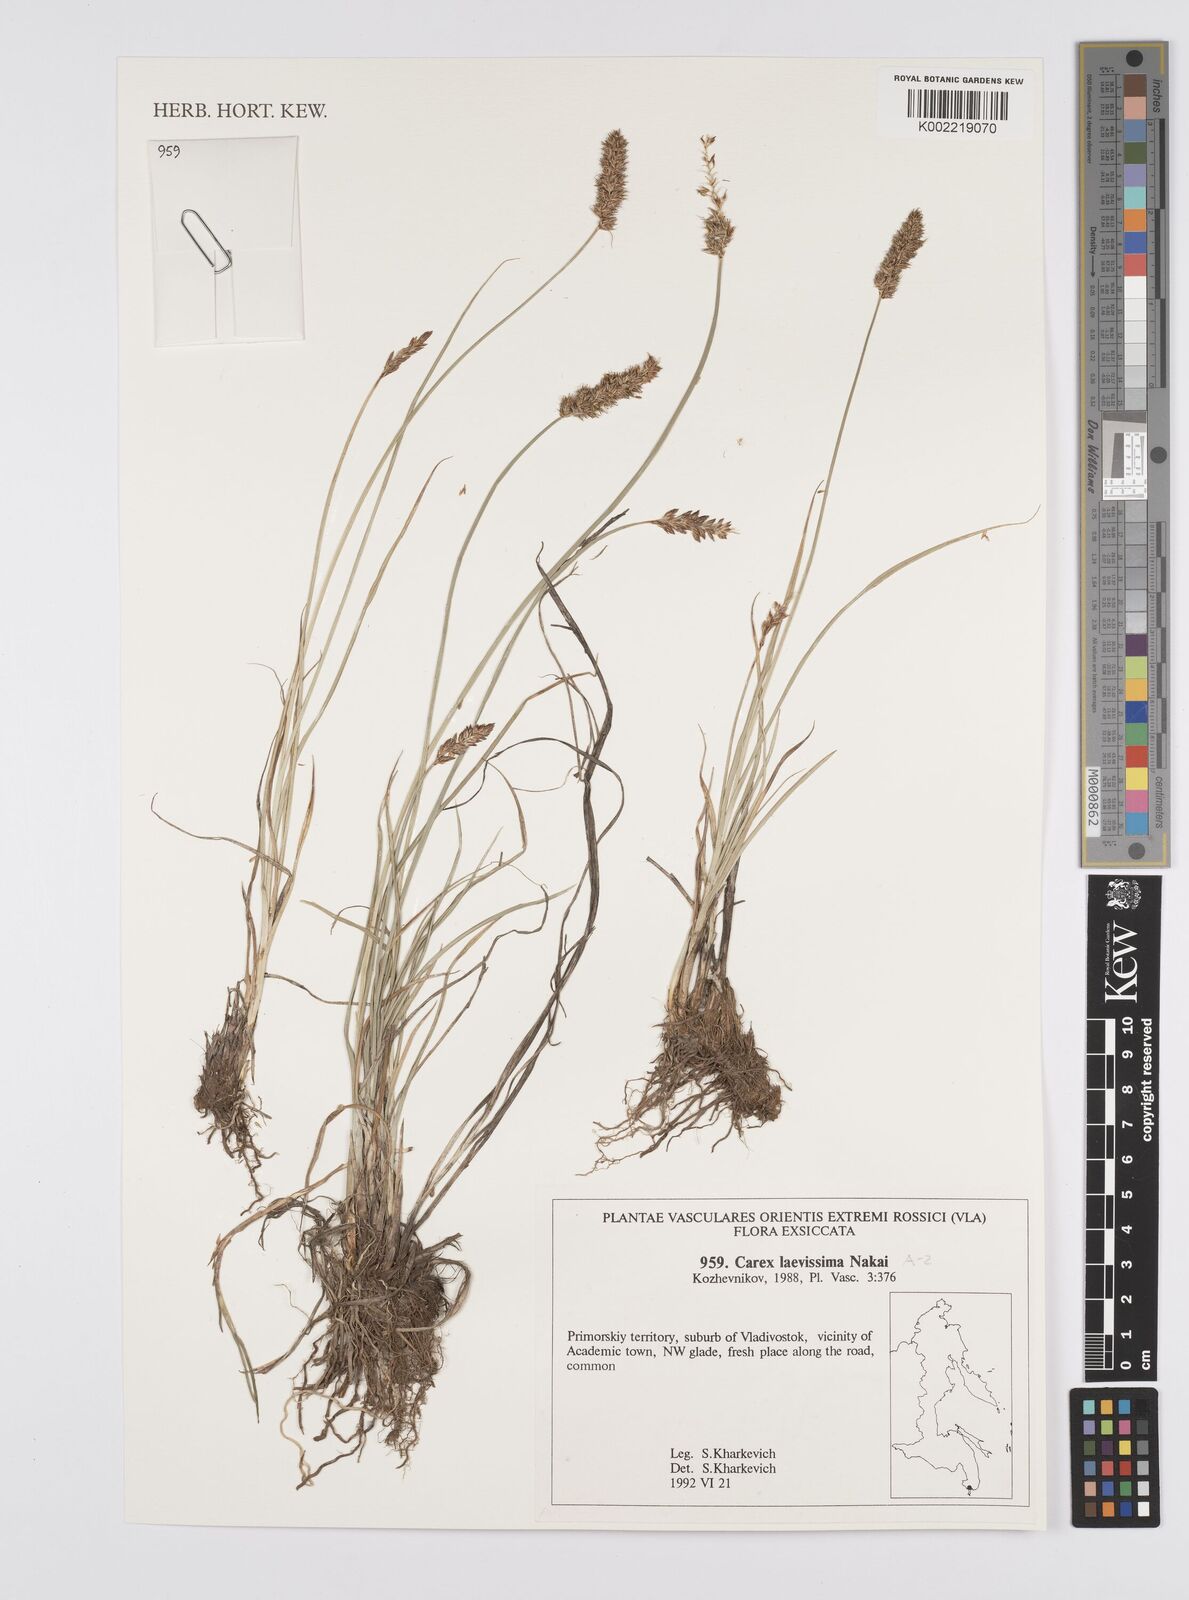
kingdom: Plantae
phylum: Tracheophyta
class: Liliopsida
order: Poales
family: Cyperaceae
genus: Carex
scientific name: Carex laevissima
